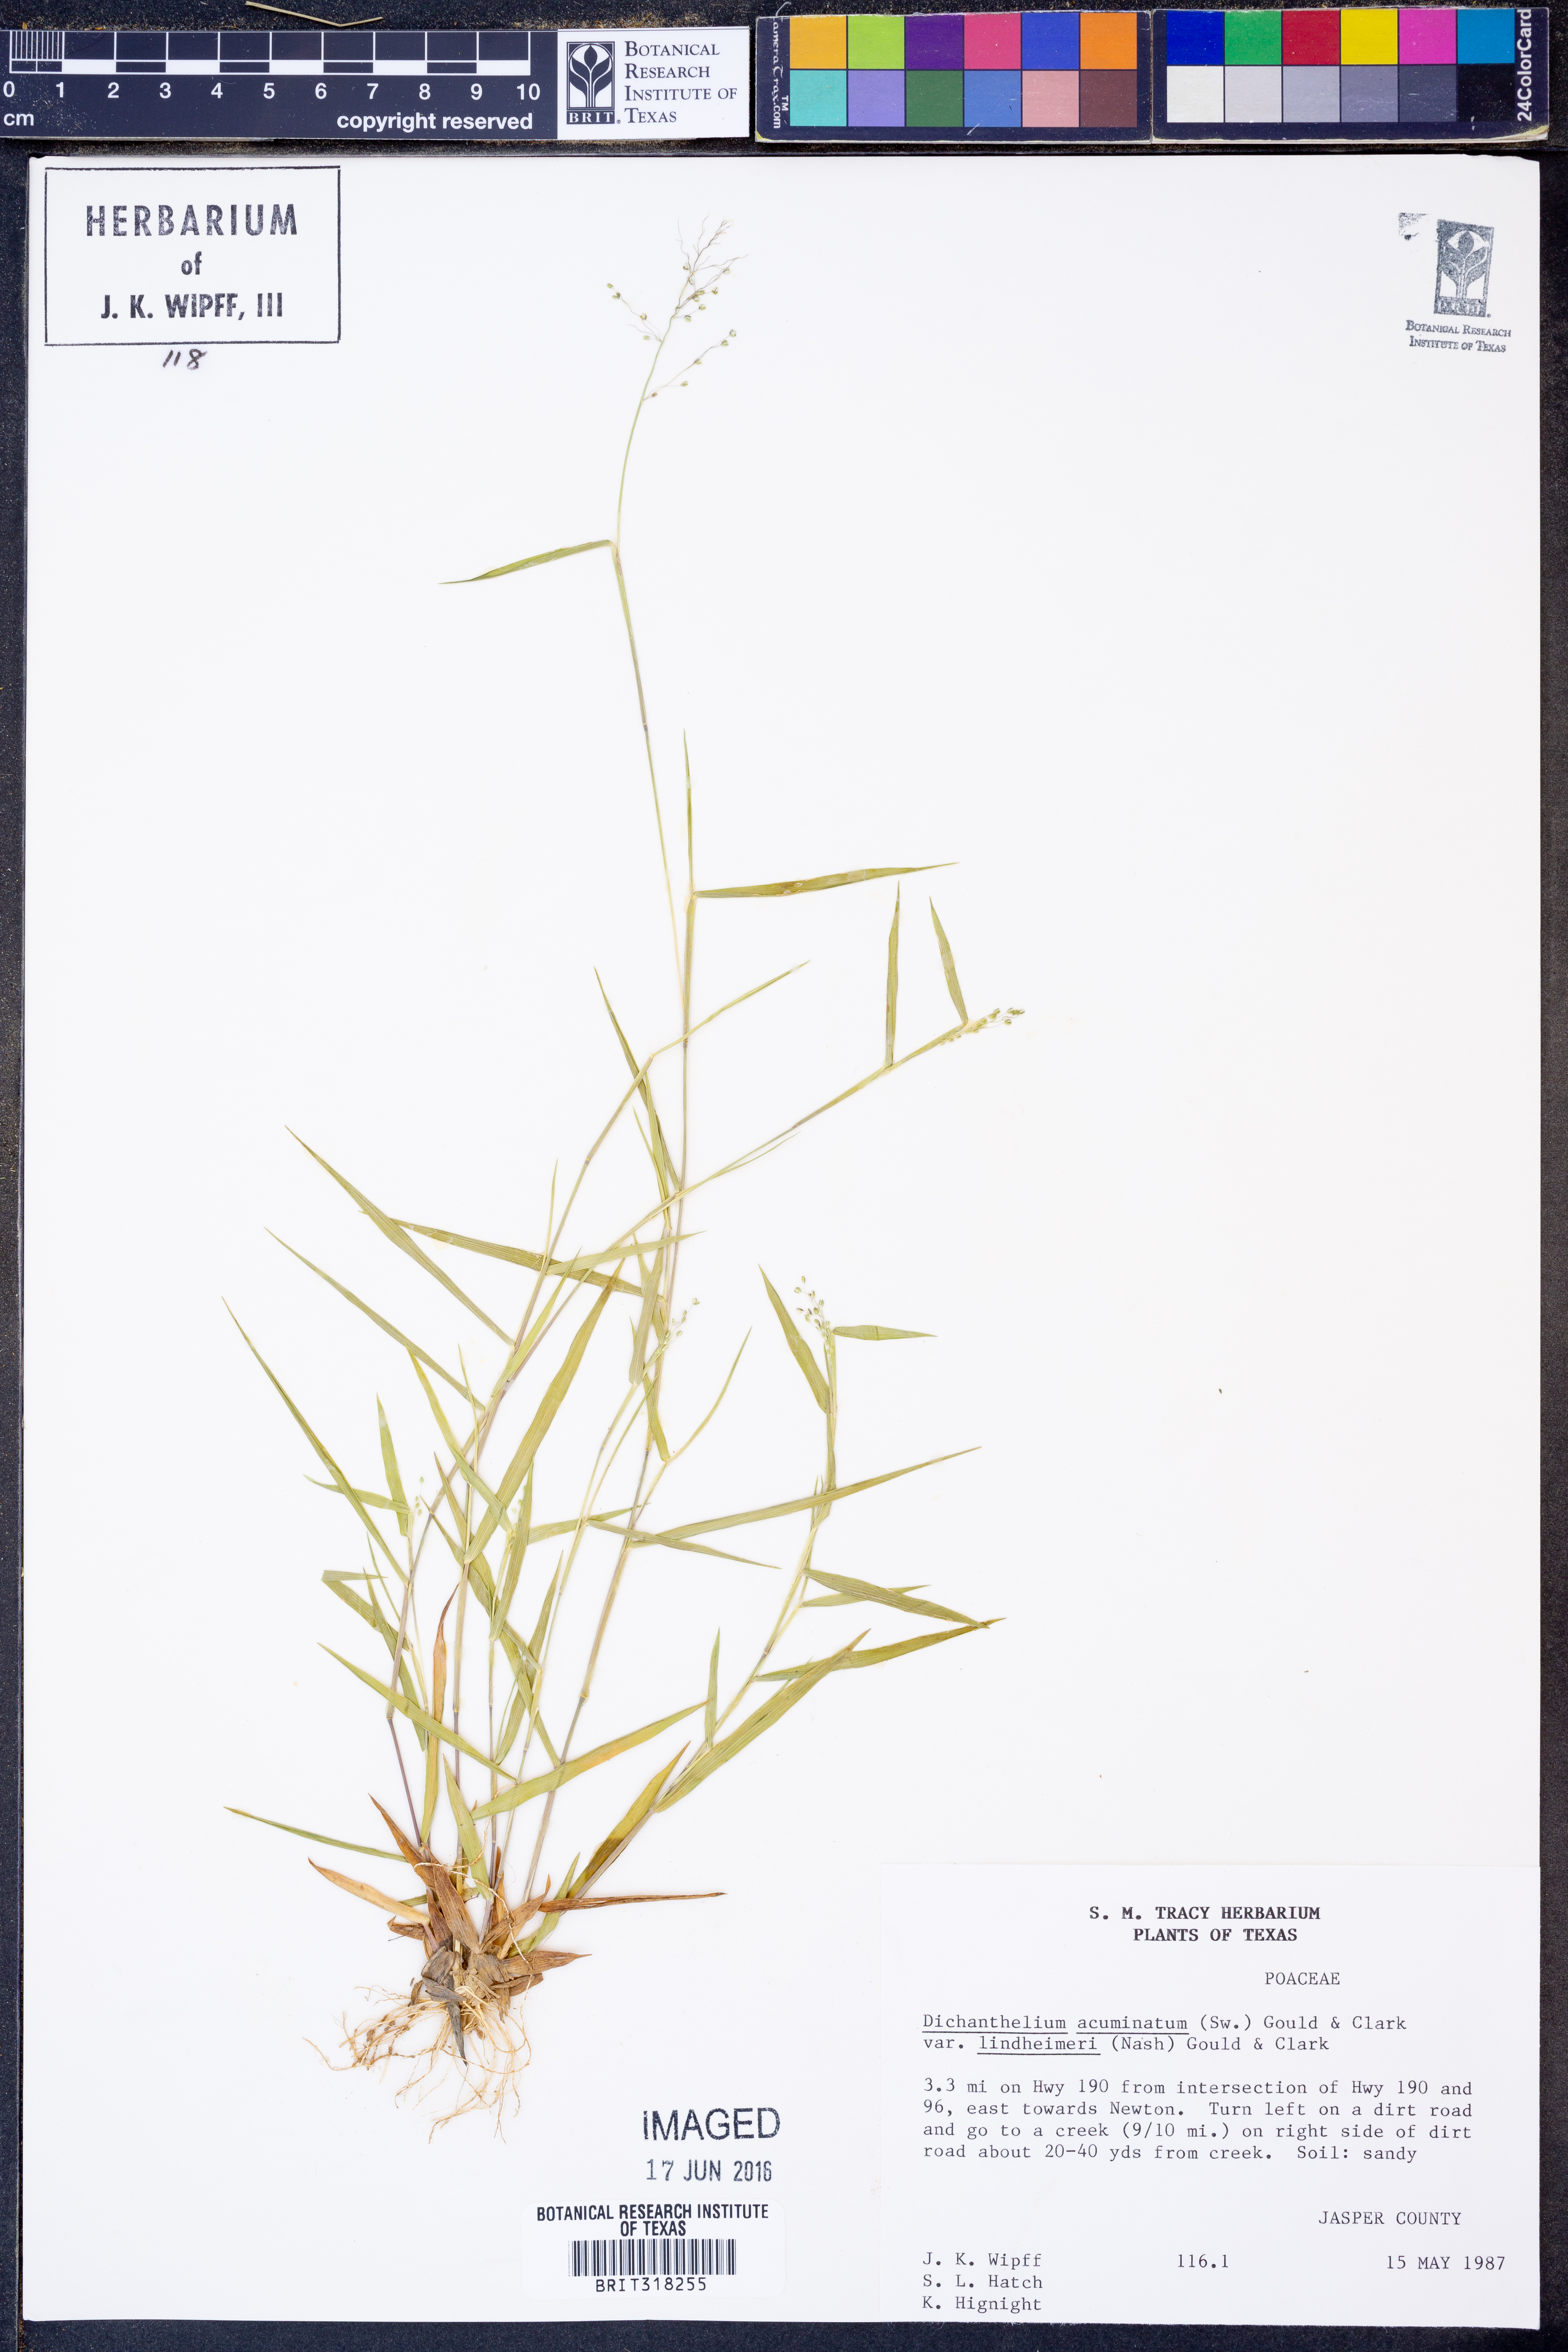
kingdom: Plantae
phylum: Tracheophyta
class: Liliopsida
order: Poales
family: Poaceae
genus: Dichanthelium
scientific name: Dichanthelium lindheimeri
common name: Lindheimer's panicgrass
